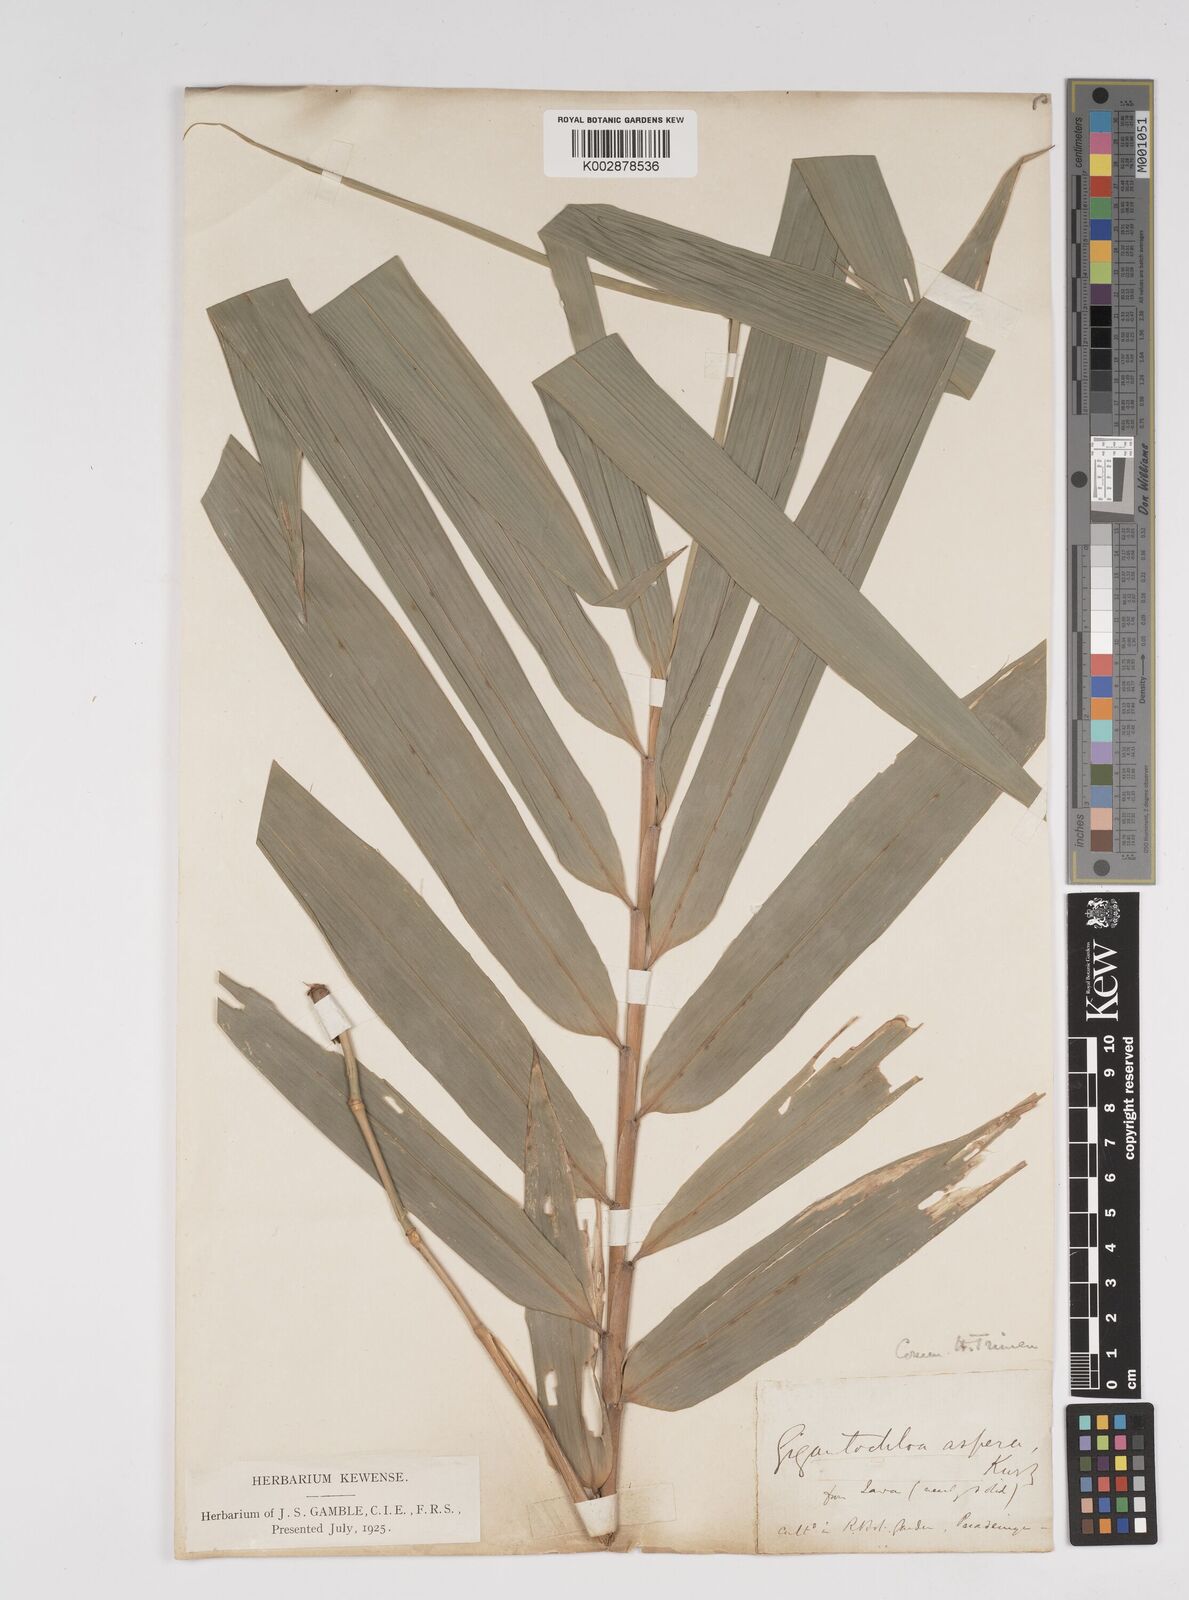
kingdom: Plantae
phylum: Tracheophyta
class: Liliopsida
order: Poales
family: Poaceae
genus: Dendrocalamus
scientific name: Dendrocalamus asper
